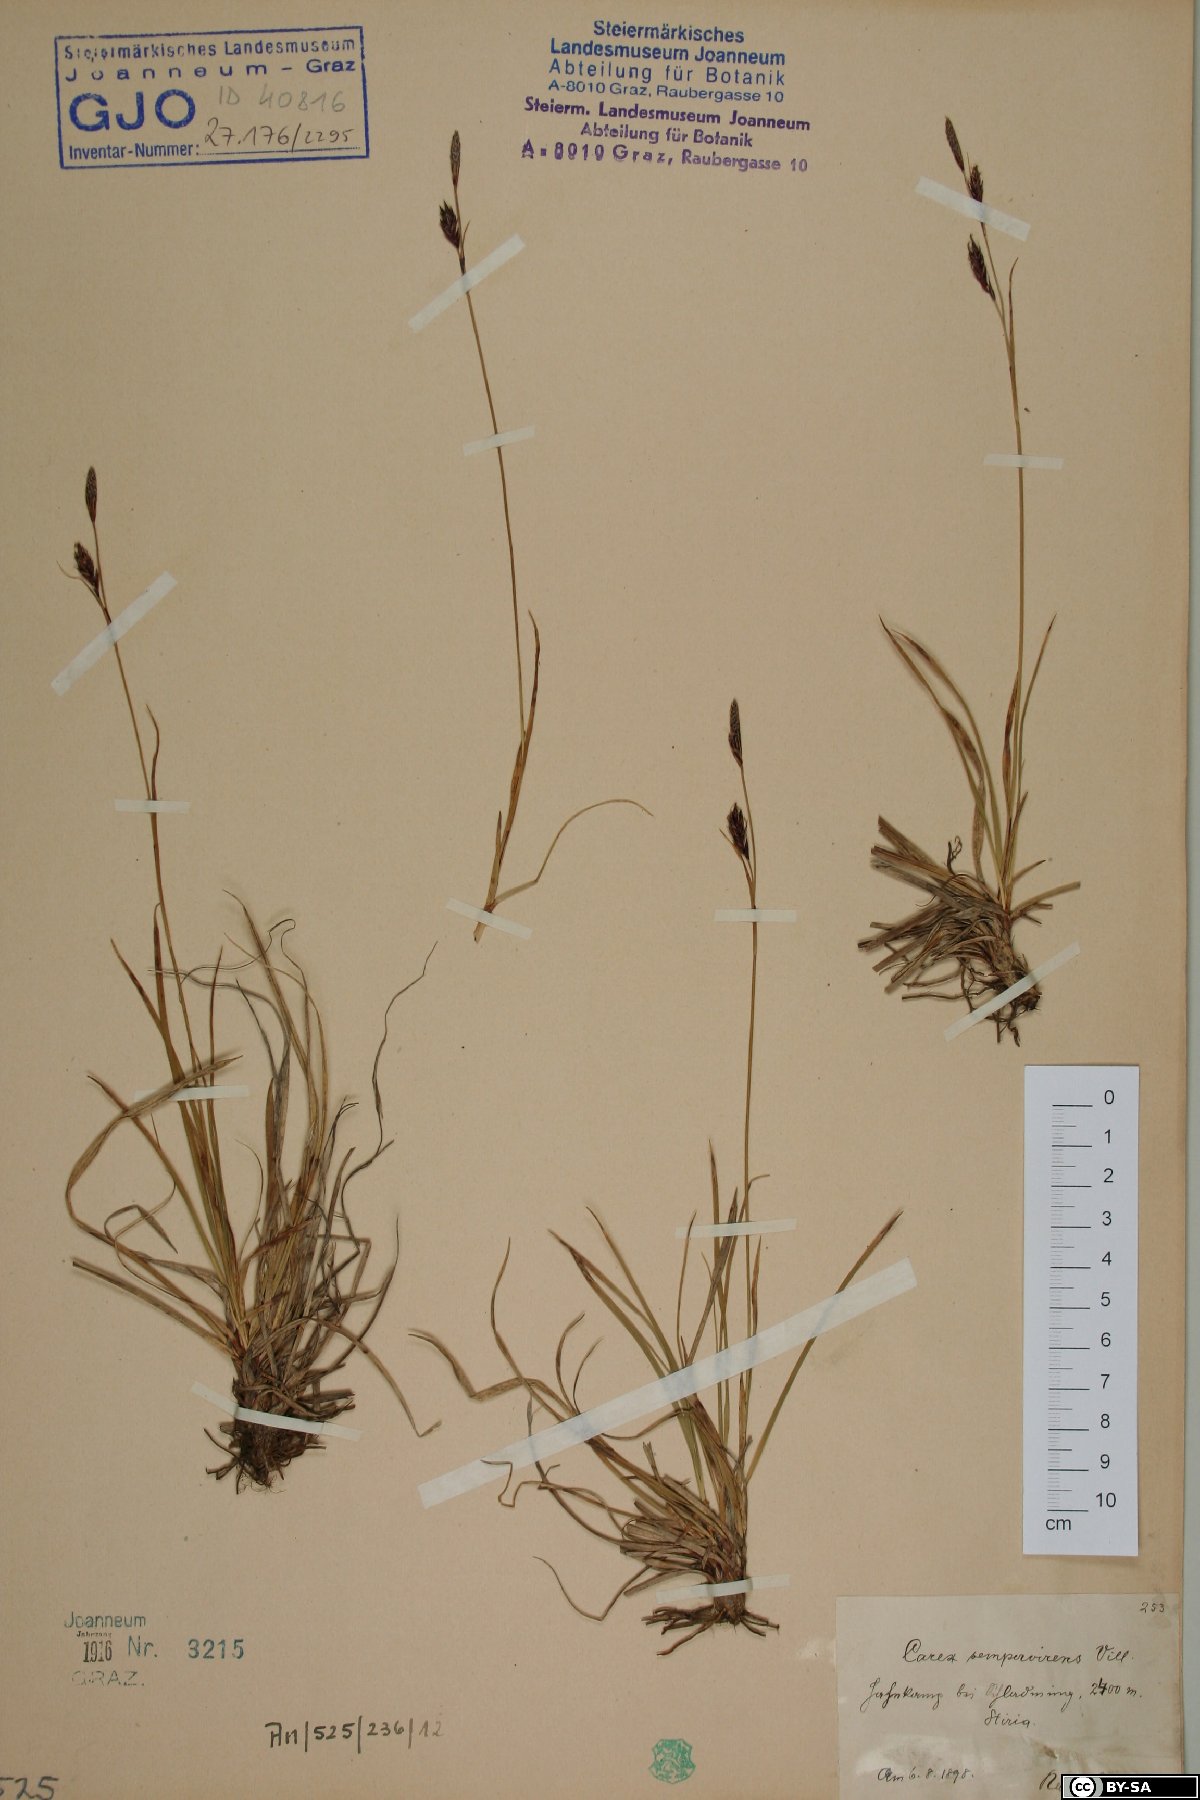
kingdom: Plantae
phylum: Tracheophyta
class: Liliopsida
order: Poales
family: Cyperaceae
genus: Carex
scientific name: Carex sempervirens
